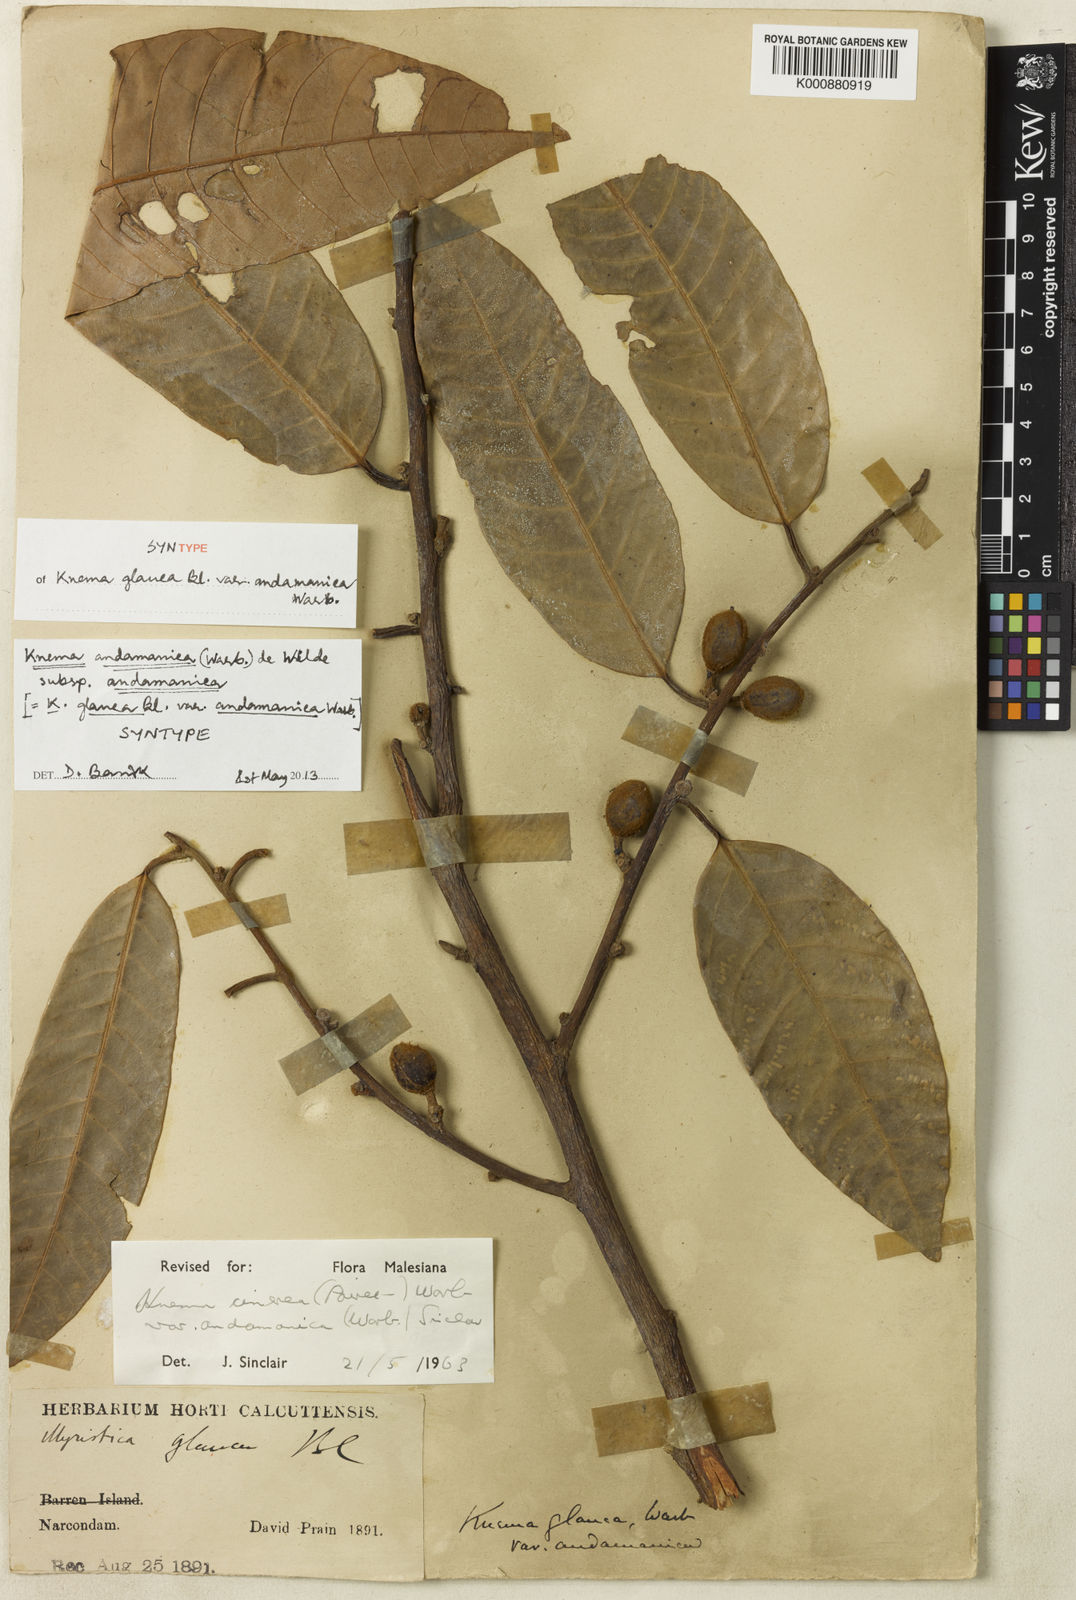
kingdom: Plantae
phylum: Tracheophyta
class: Magnoliopsida
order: Magnoliales
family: Myristicaceae
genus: Knema
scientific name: Knema andamanica
